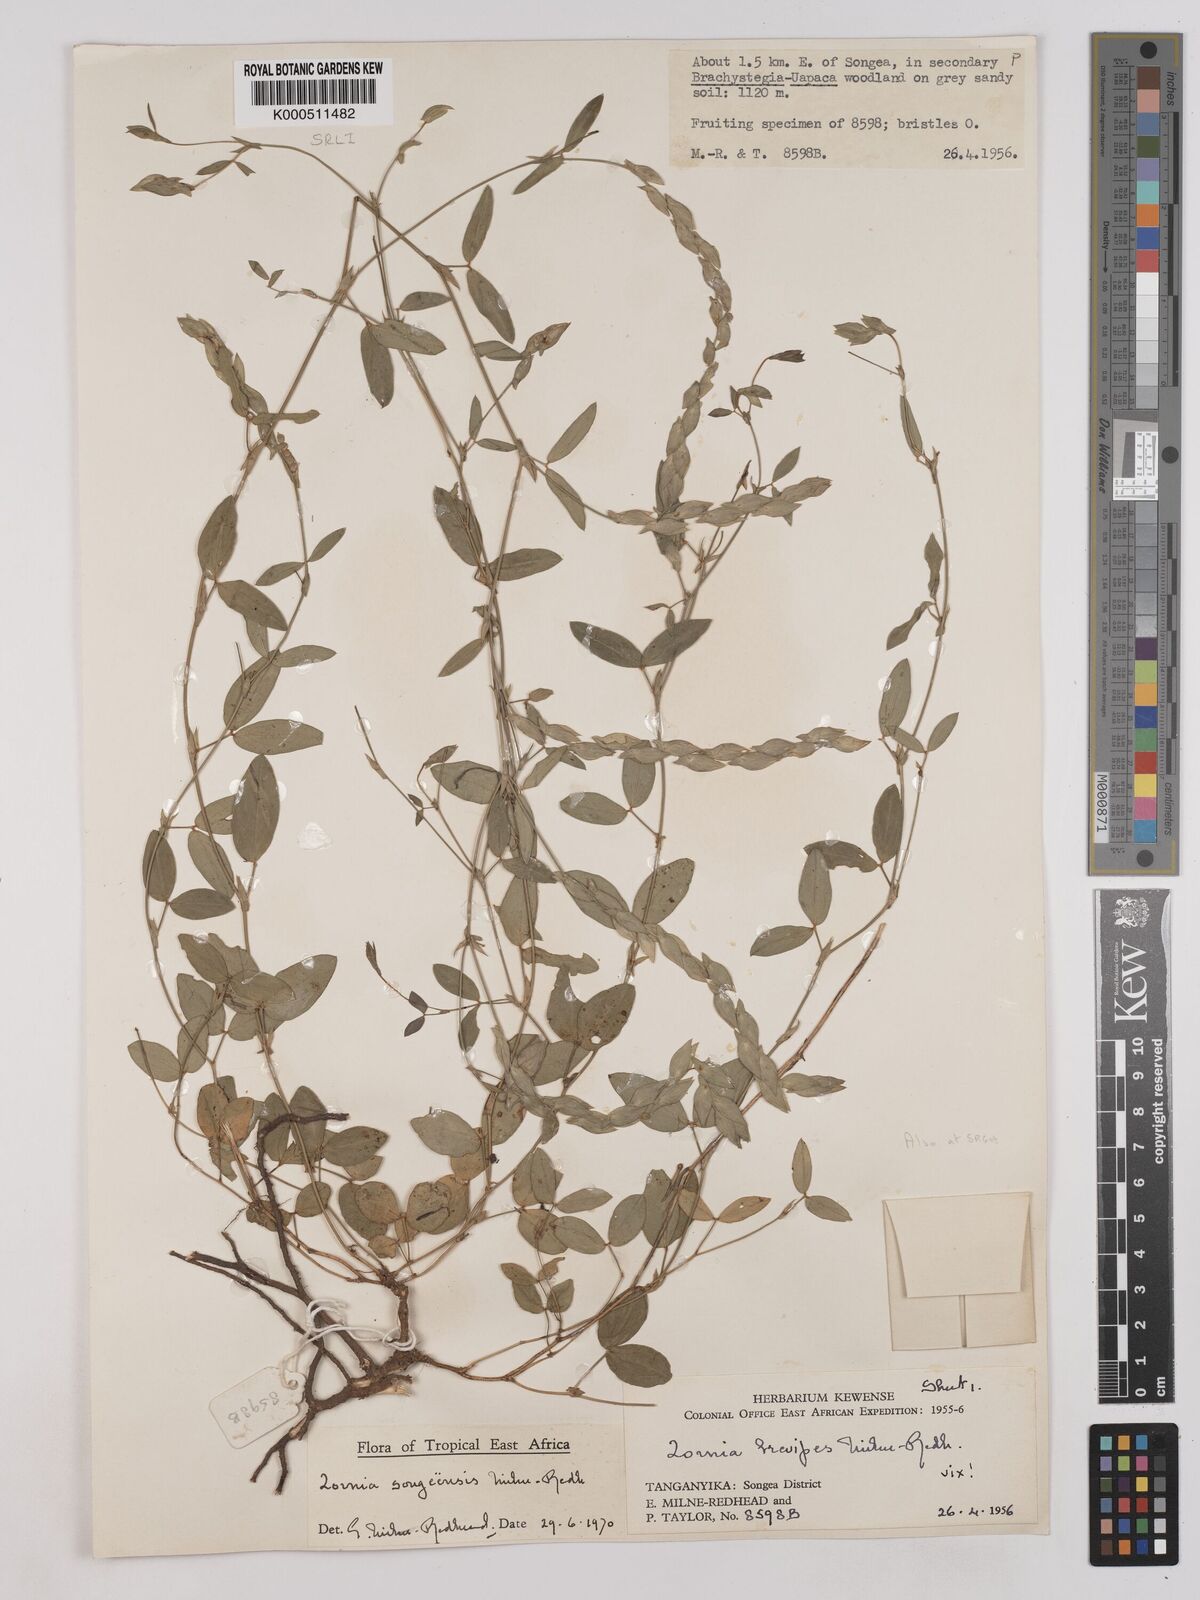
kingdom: Plantae
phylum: Tracheophyta
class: Magnoliopsida
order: Fabales
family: Fabaceae
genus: Zornia
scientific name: Zornia songeensis
